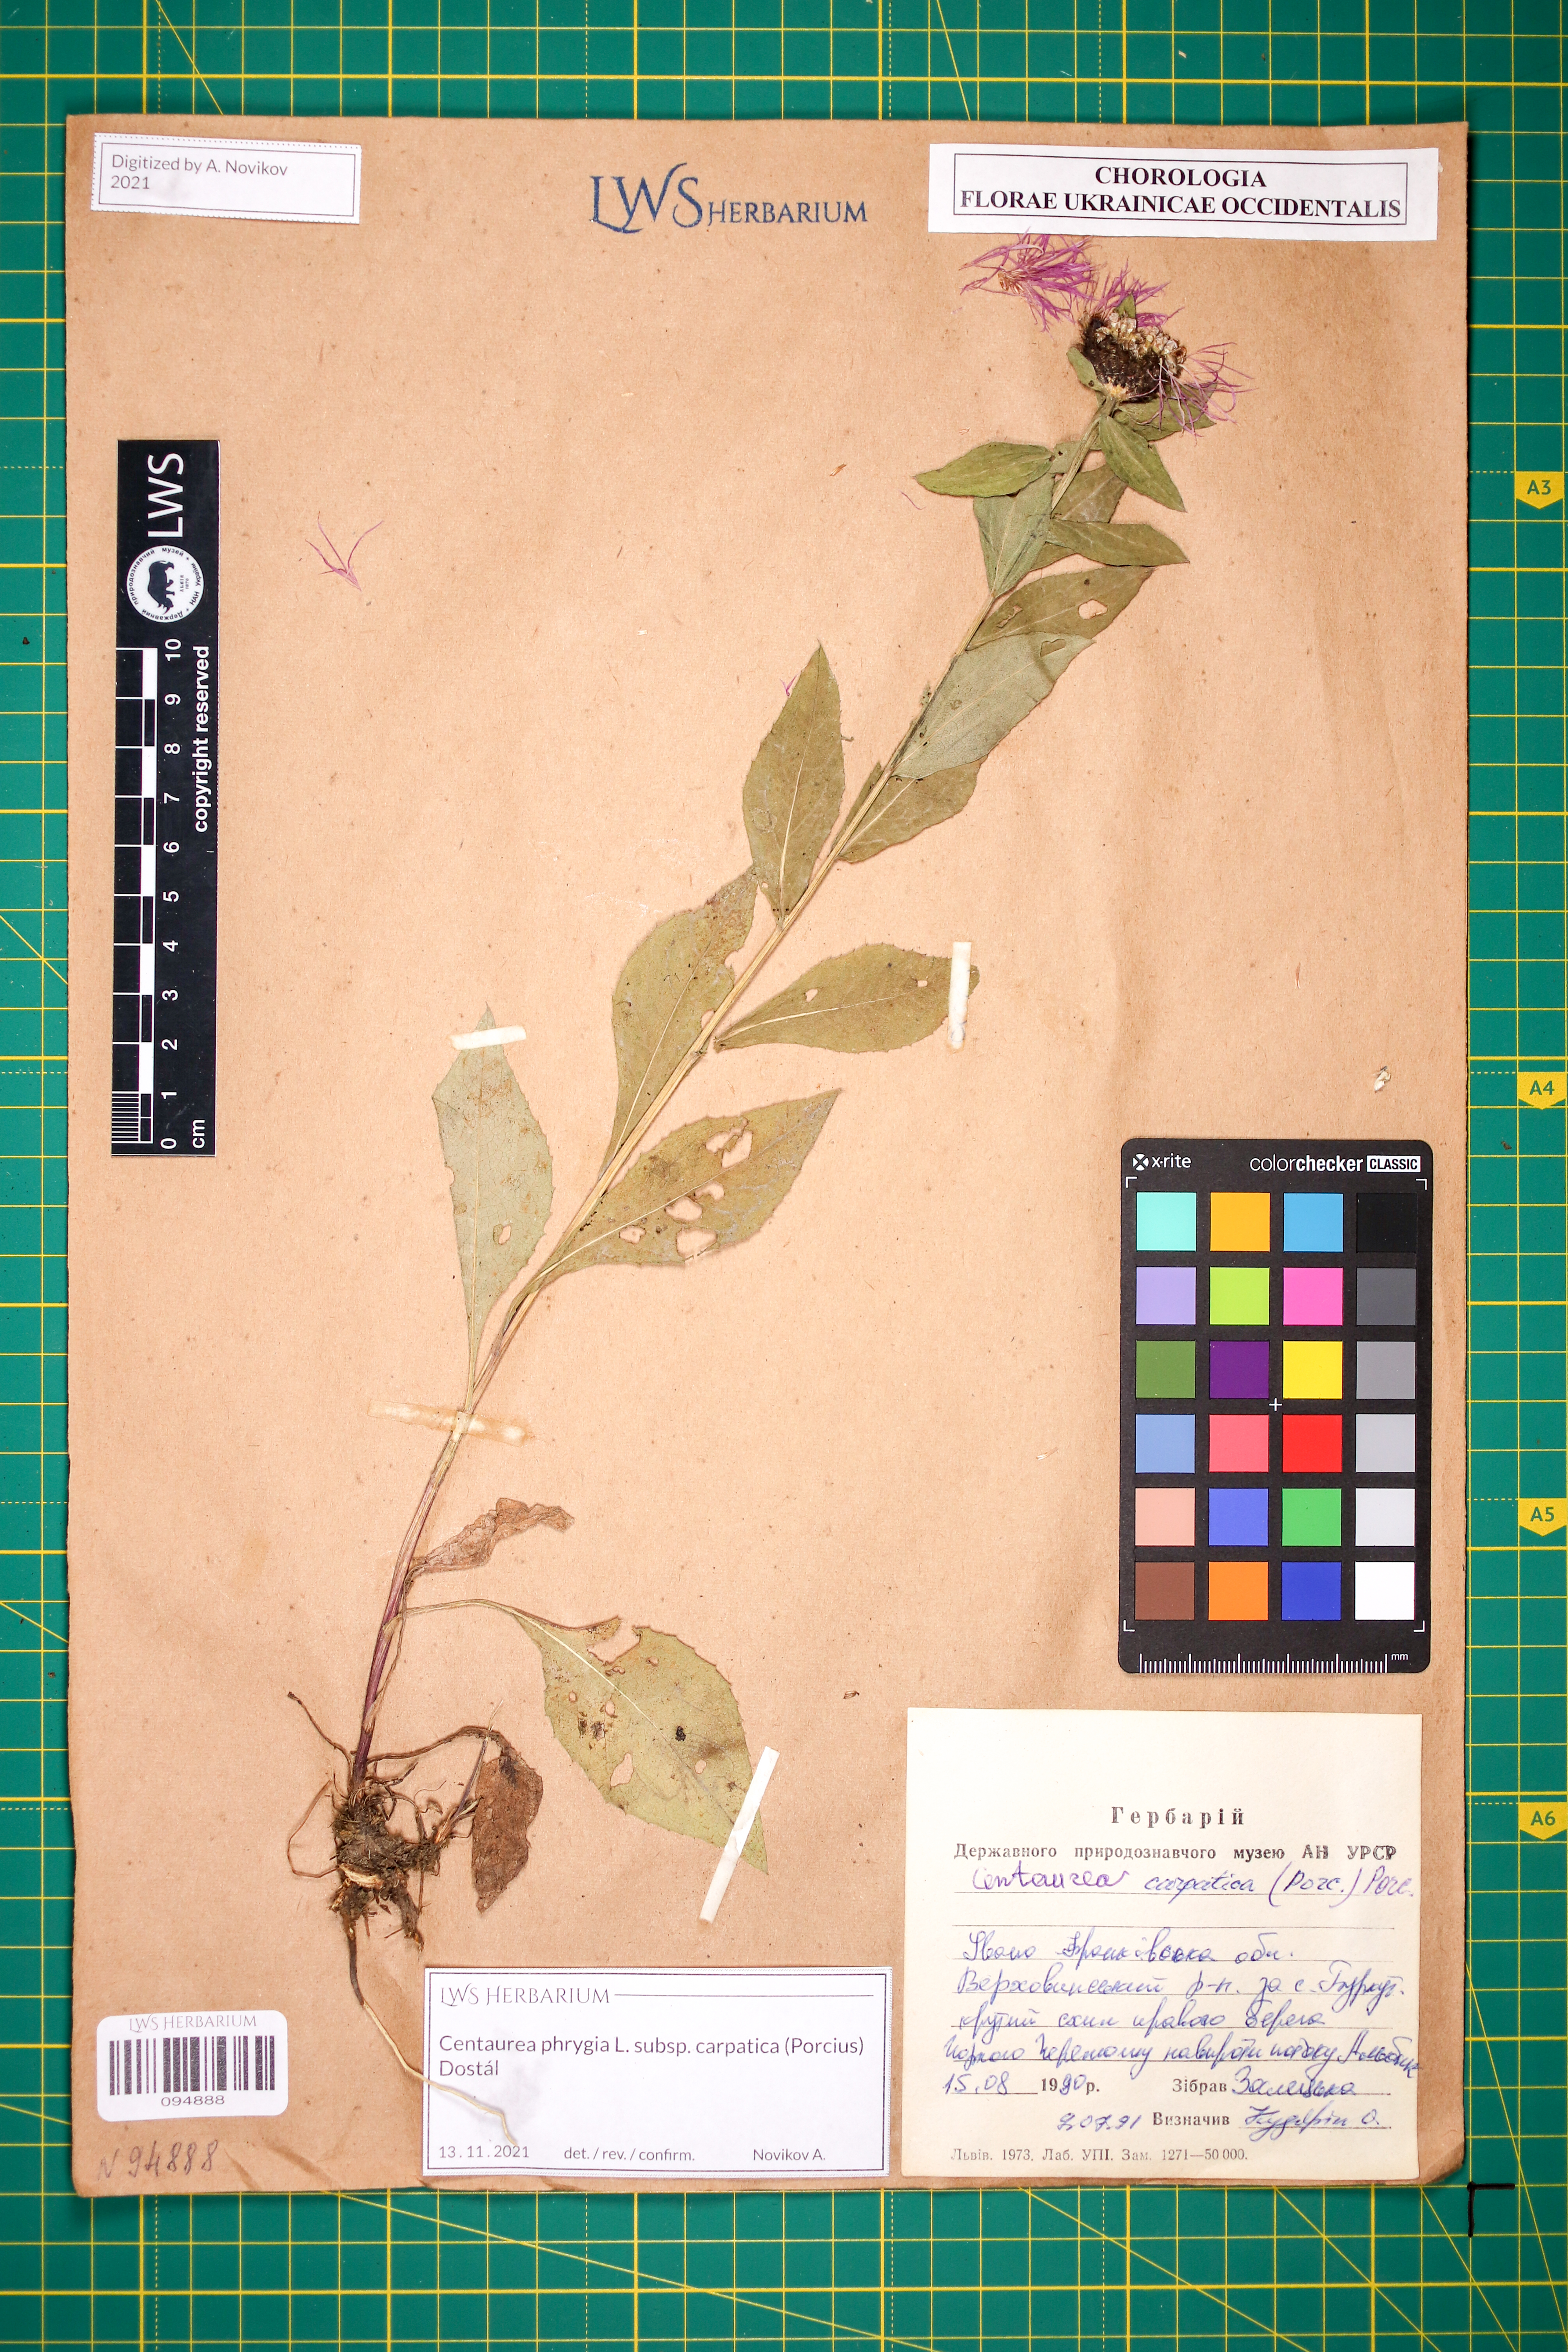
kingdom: Plantae
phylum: Tracheophyta
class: Magnoliopsida
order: Asterales
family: Asteraceae
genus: Centaurea
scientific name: Centaurea phrygia
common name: Wig knapweed
